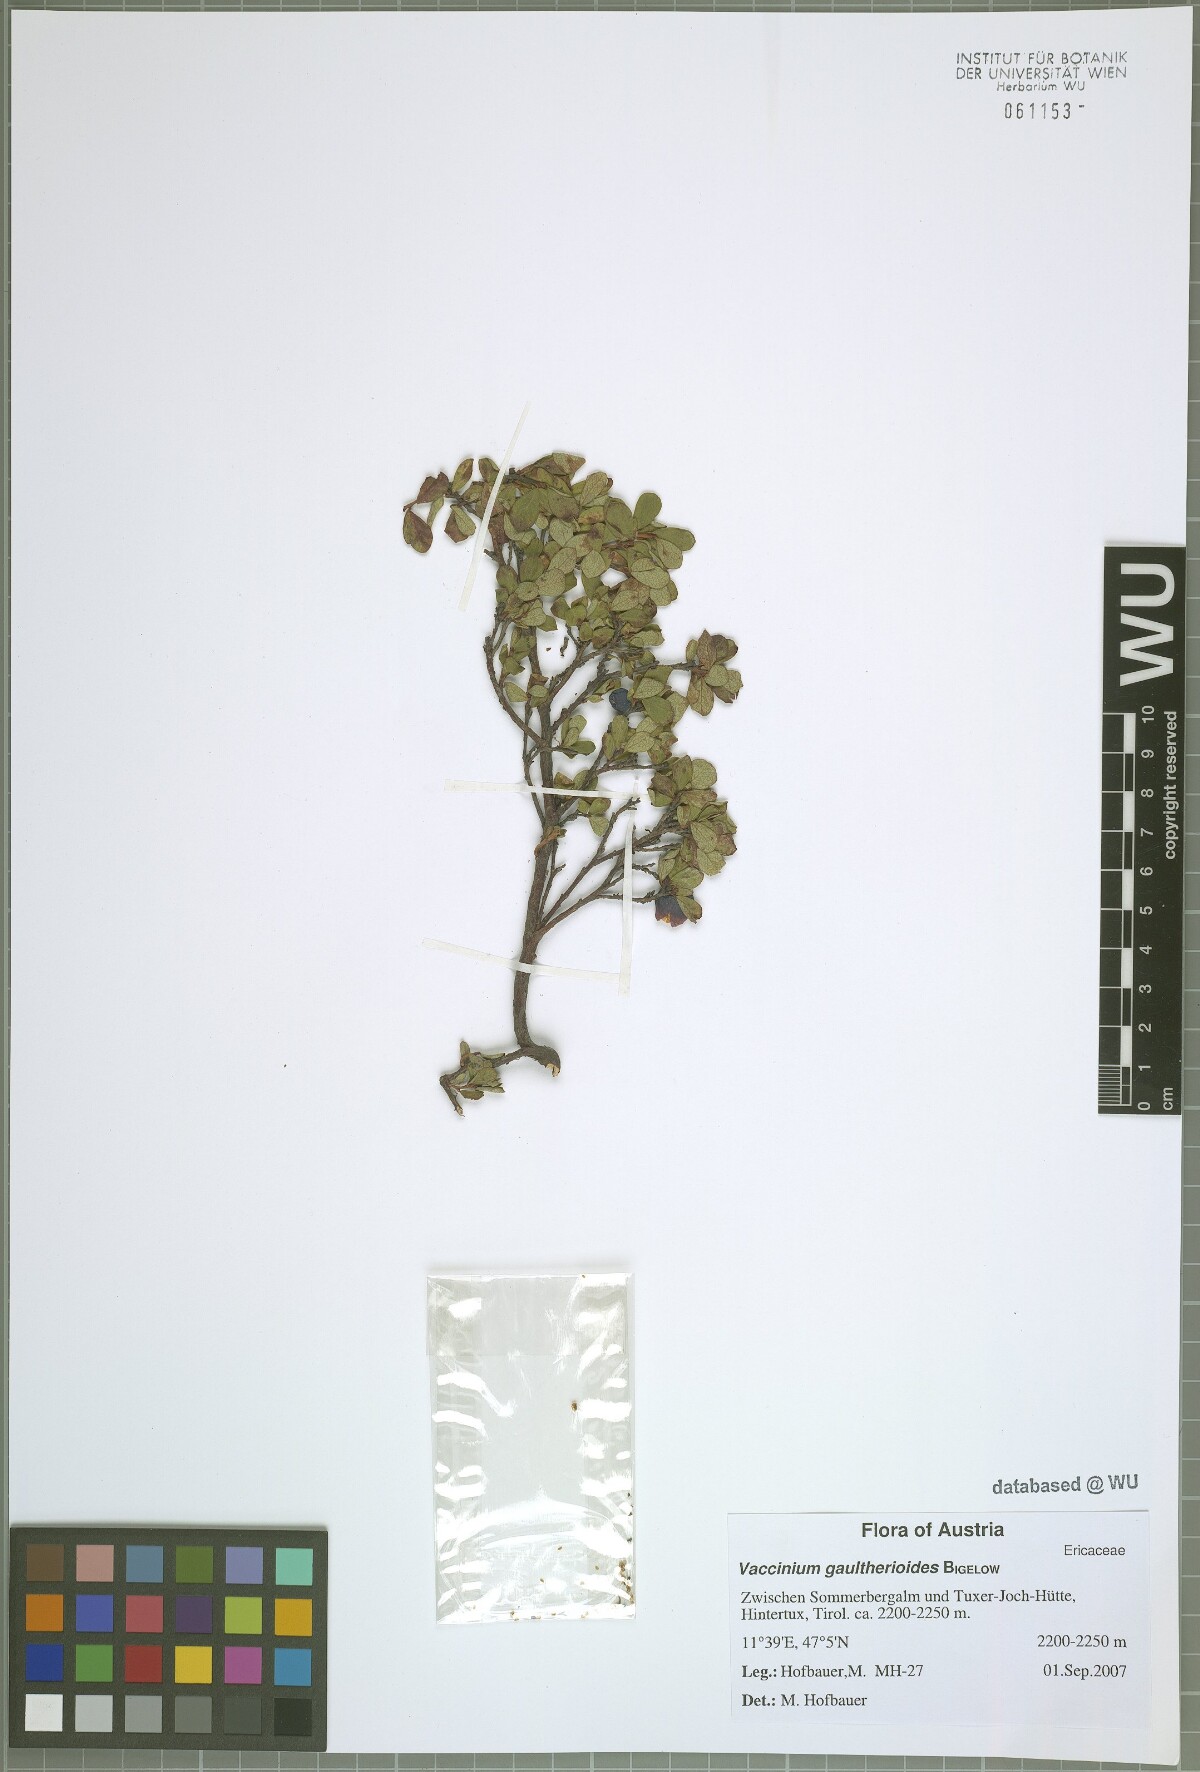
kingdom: Plantae
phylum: Tracheophyta
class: Magnoliopsida
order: Ericales
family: Ericaceae
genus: Vaccinium
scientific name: Vaccinium gaultherioides
